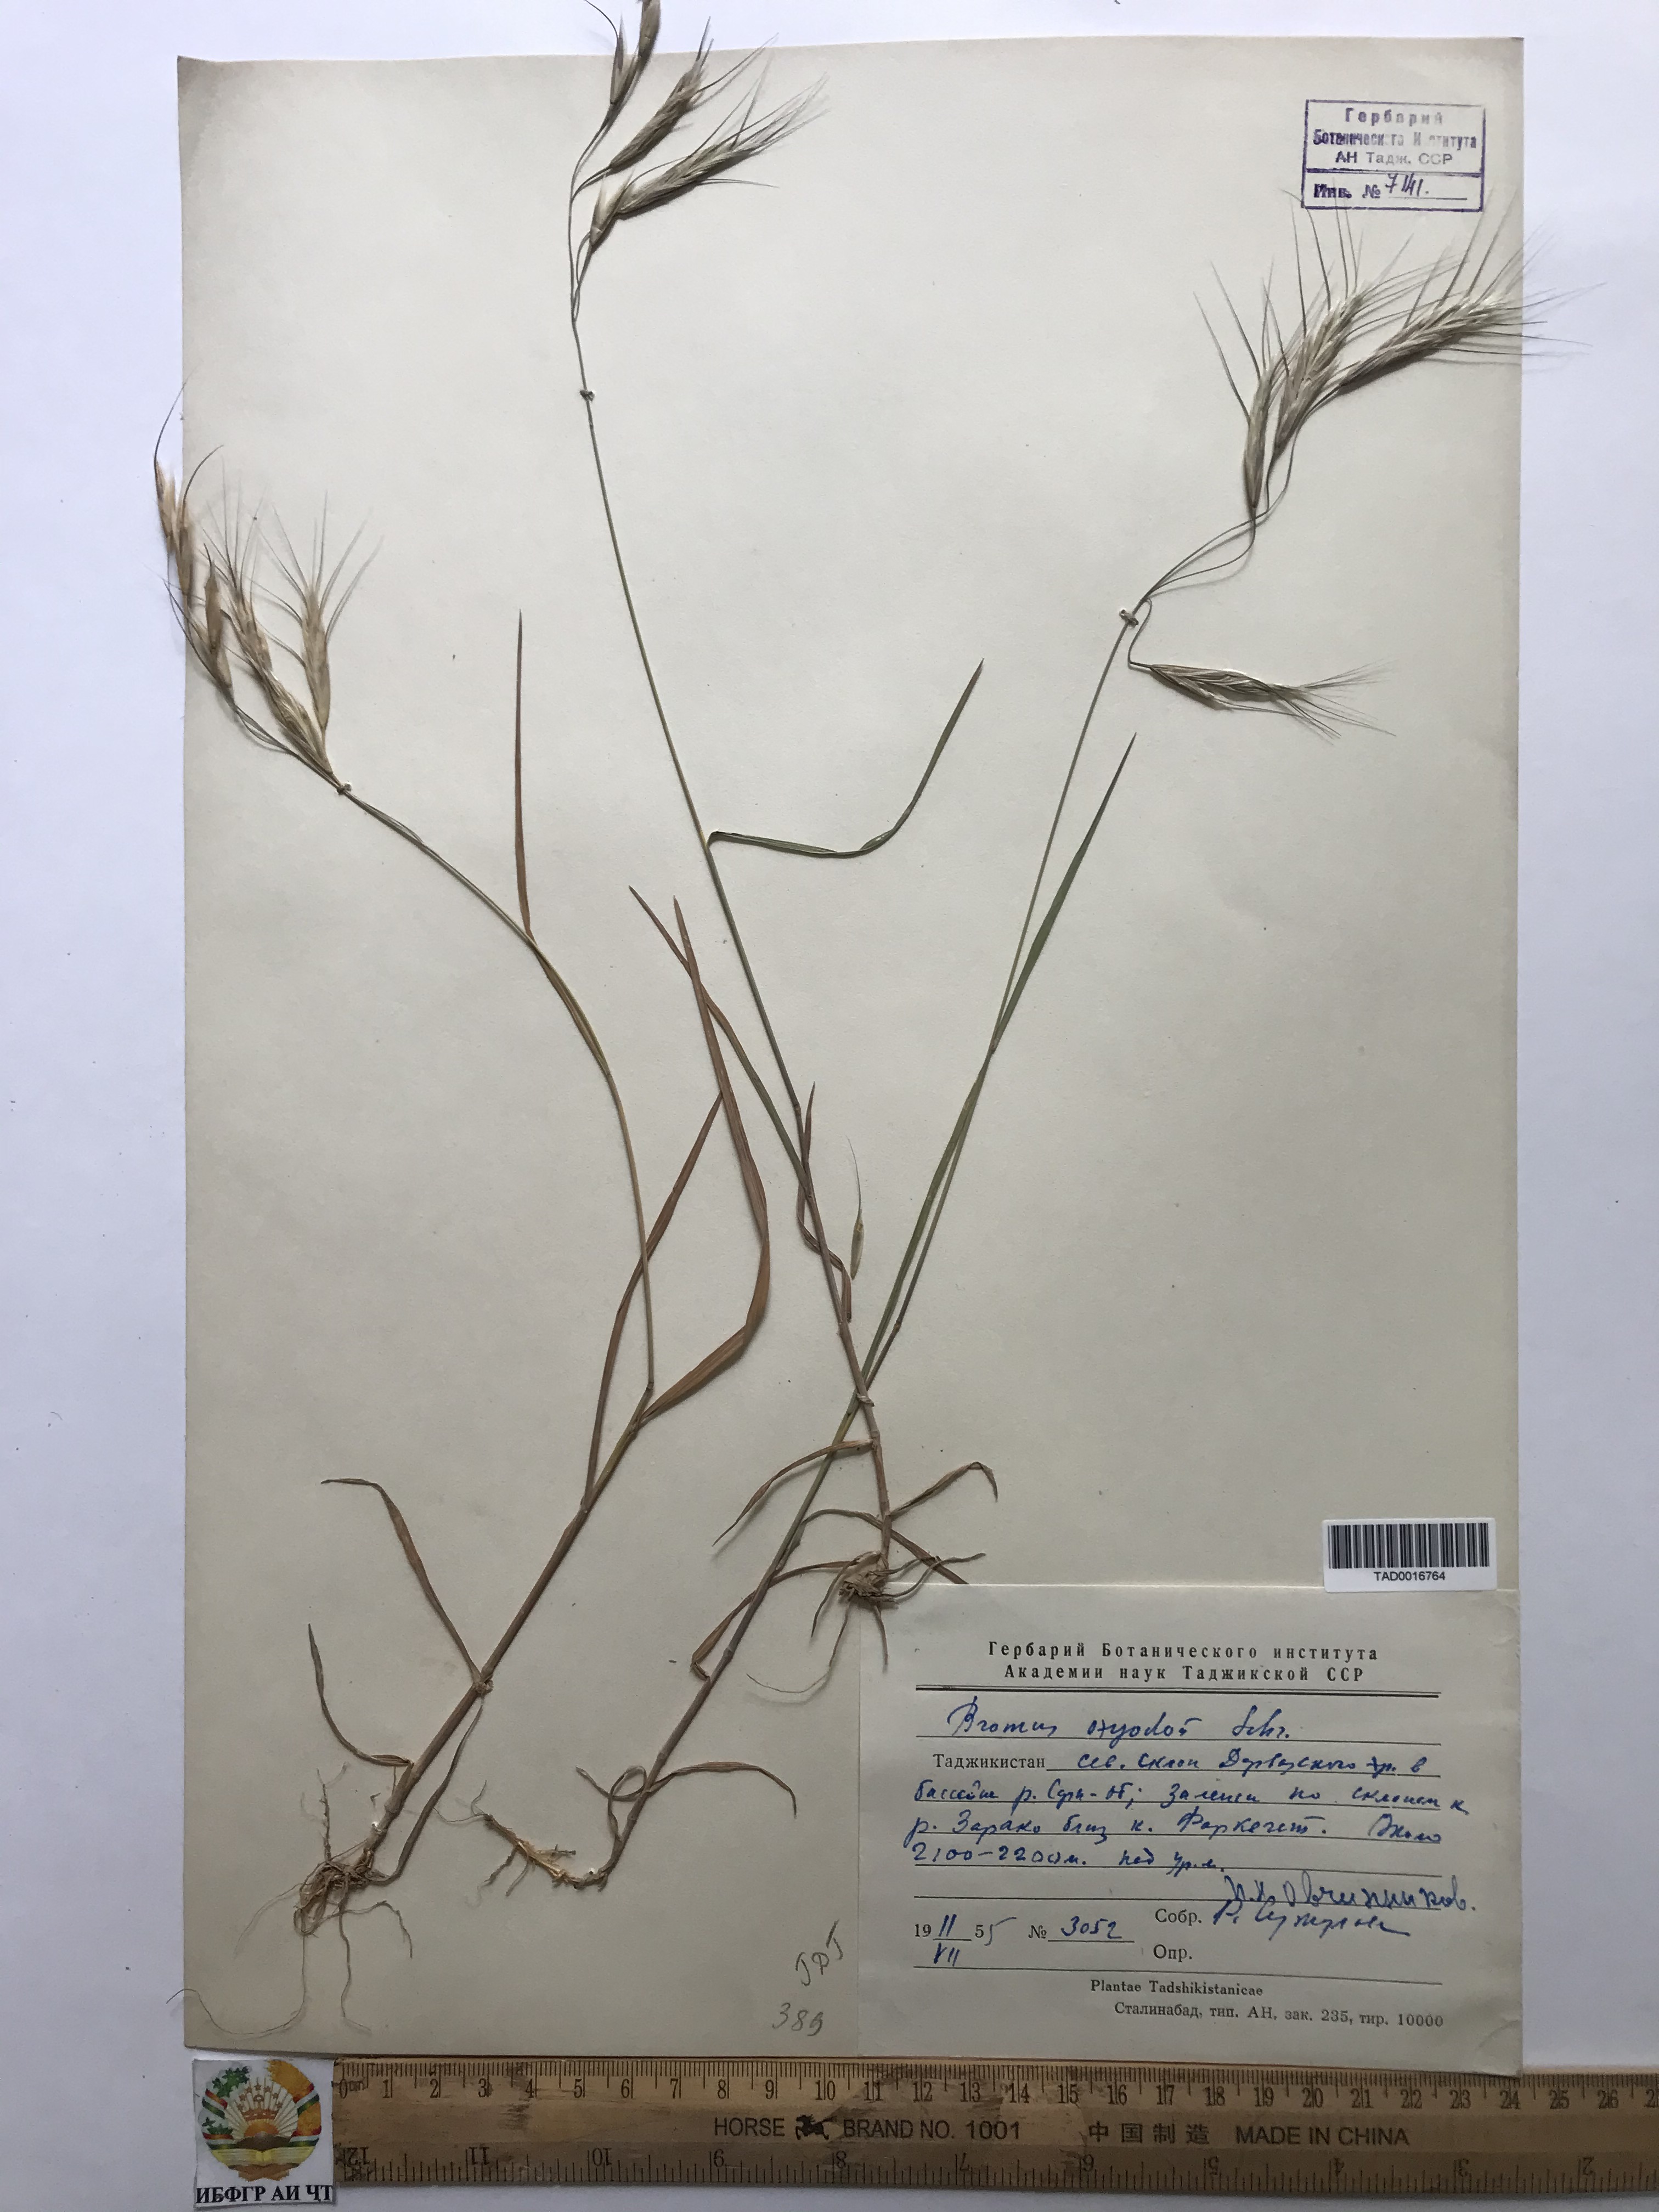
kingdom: Plantae
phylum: Tracheophyta
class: Liliopsida
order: Poales
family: Poaceae
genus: Bromus
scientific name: Bromus oxyodon
